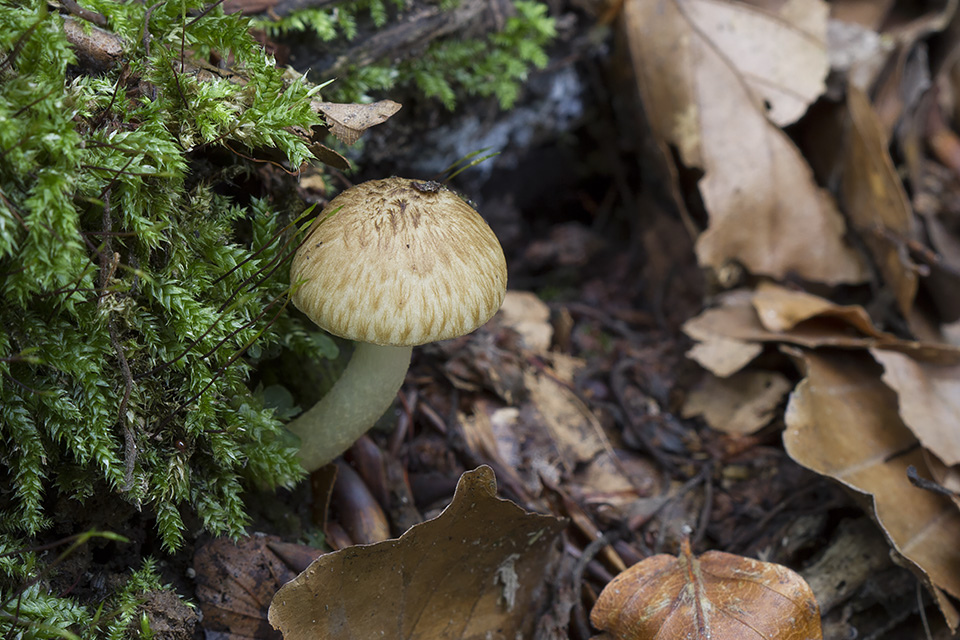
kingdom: Fungi
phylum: Basidiomycota
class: Agaricomycetes
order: Agaricales
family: Psathyrellaceae
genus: Cystoagaricus
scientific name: Cystoagaricus lepidotoides
